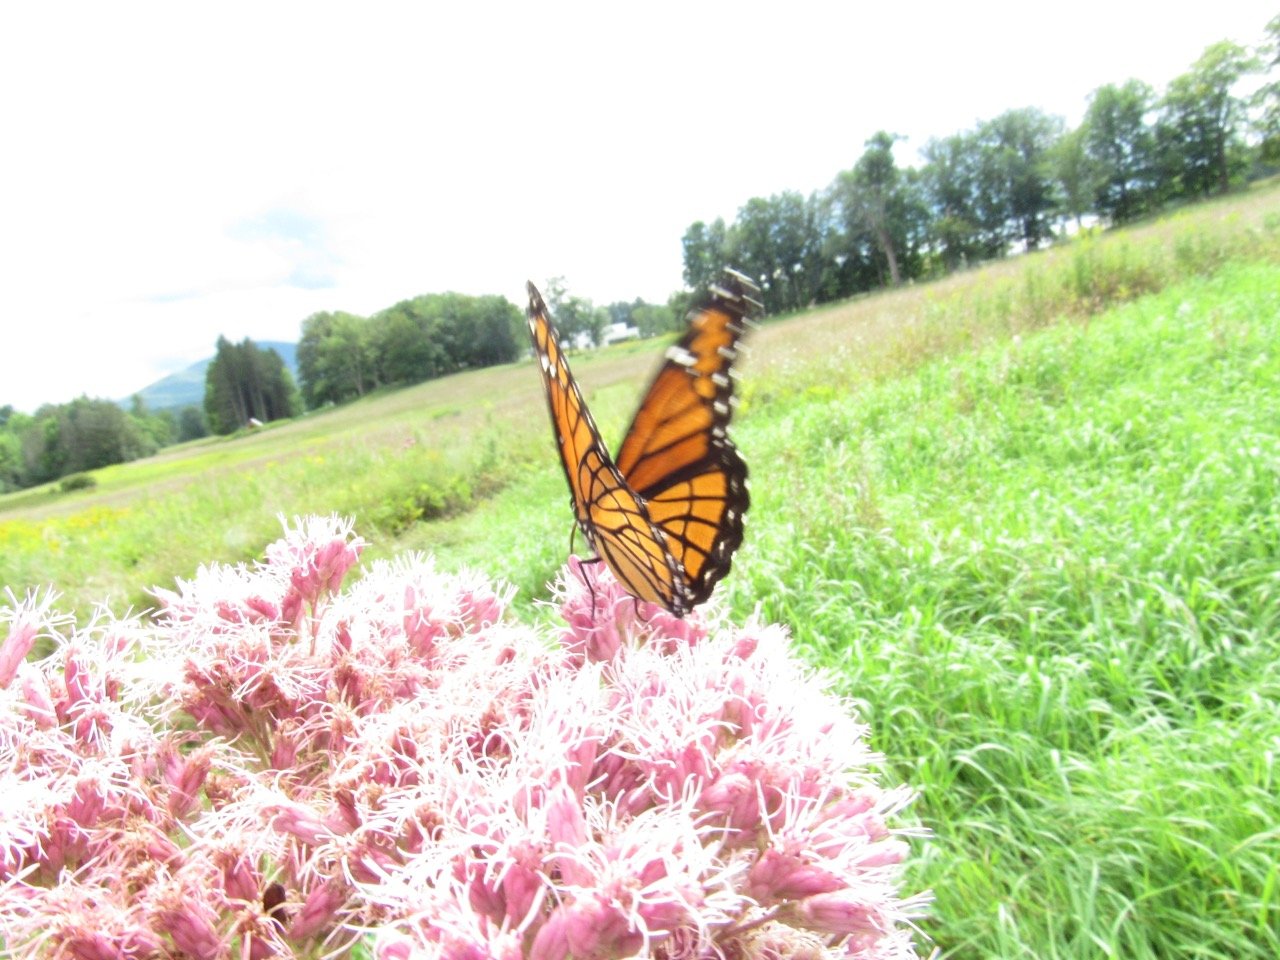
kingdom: Animalia
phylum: Arthropoda
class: Insecta
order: Lepidoptera
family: Nymphalidae
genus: Limenitis
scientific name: Limenitis archippus
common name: Viceroy
